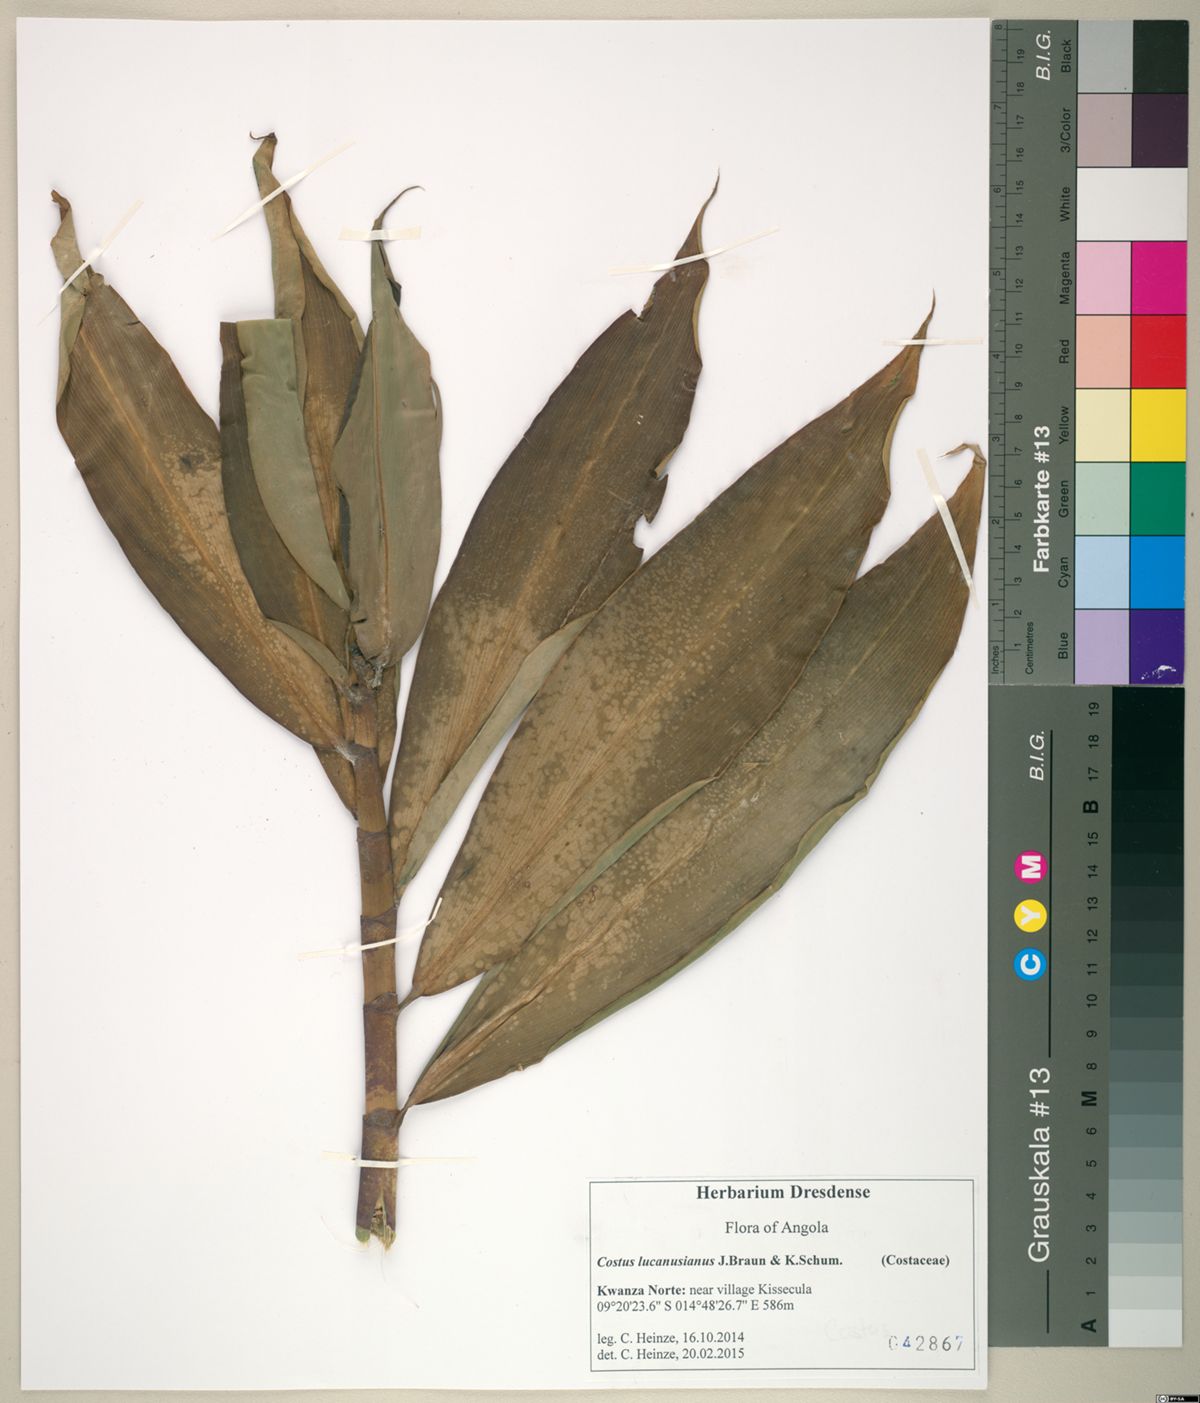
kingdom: Plantae
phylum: Tracheophyta
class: Liliopsida
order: Zingiberales
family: Costaceae
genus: Costus
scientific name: Costus afer
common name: Spiral-ginger
